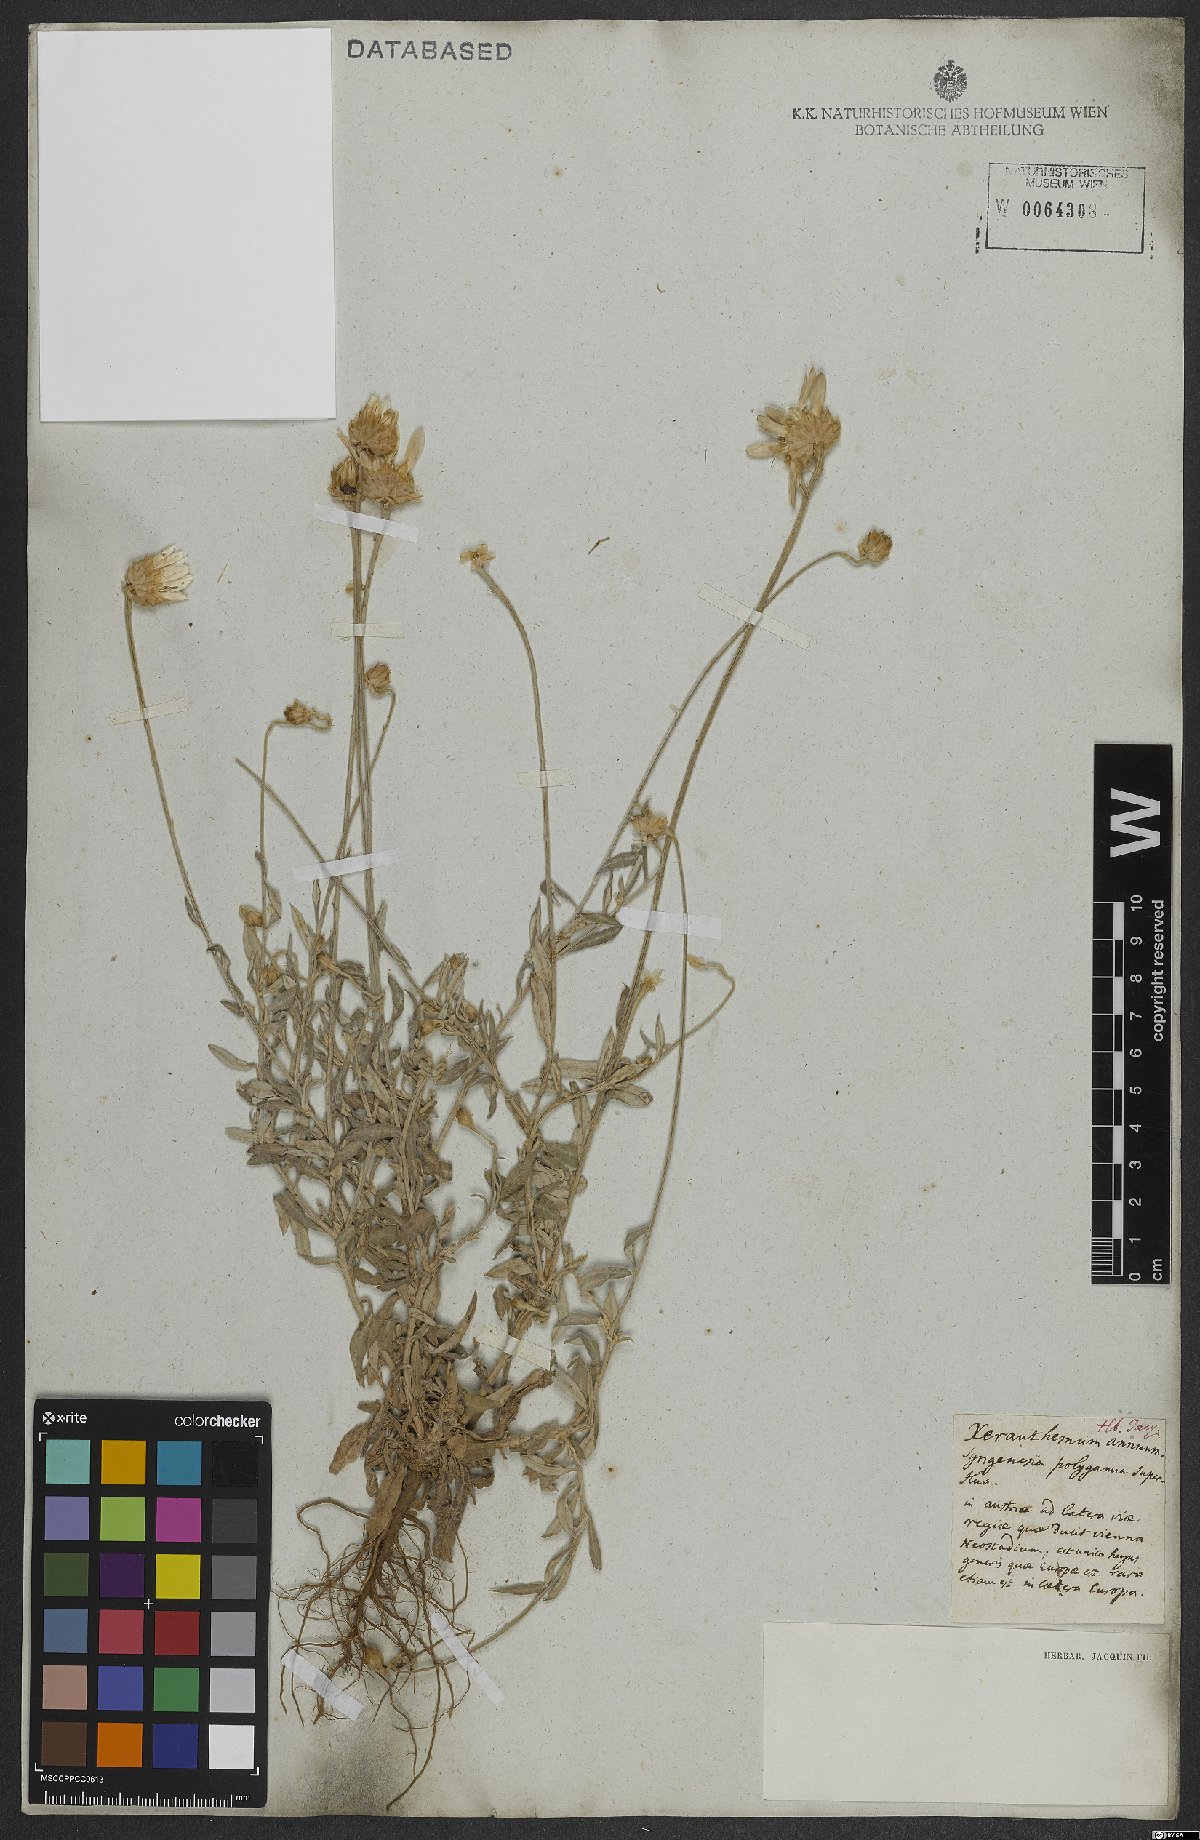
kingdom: Plantae
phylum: Tracheophyta
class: Magnoliopsida
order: Asterales
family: Asteraceae
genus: Xeranthemum
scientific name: Xeranthemum annuum
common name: Immortelle
